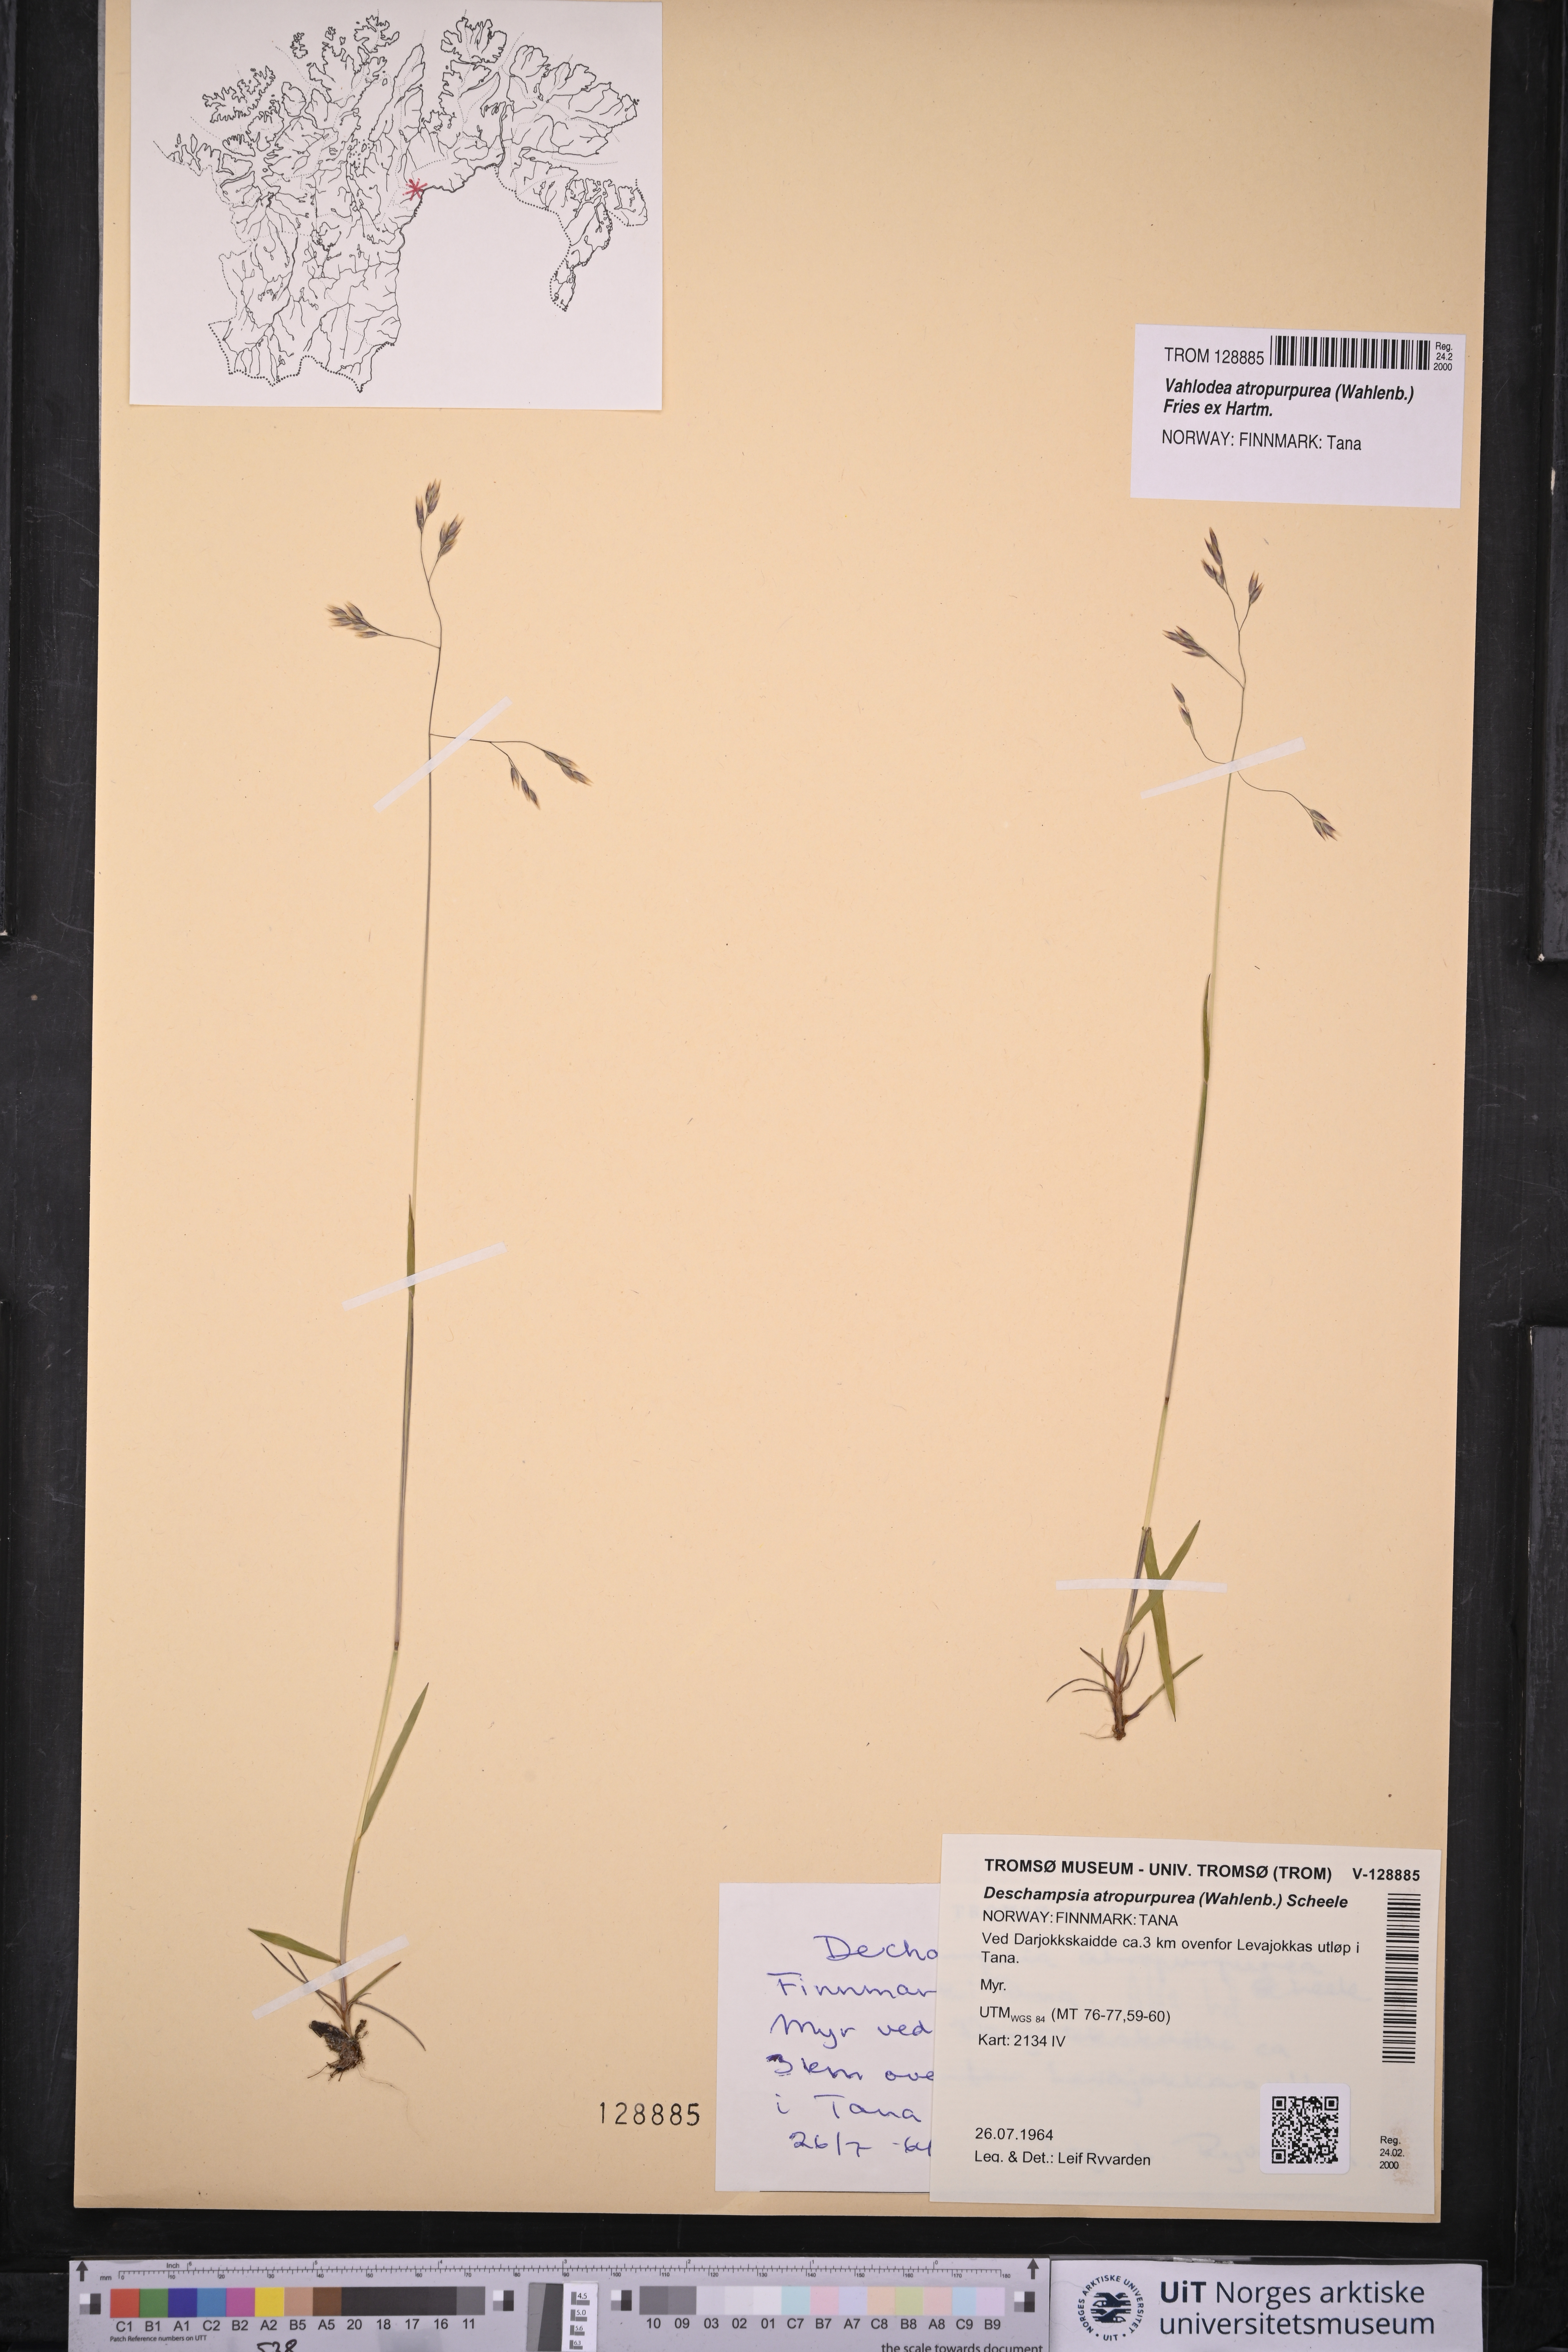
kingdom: Plantae
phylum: Tracheophyta
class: Liliopsida
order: Poales
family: Poaceae
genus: Vahlodea
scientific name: Vahlodea atropurpurea
